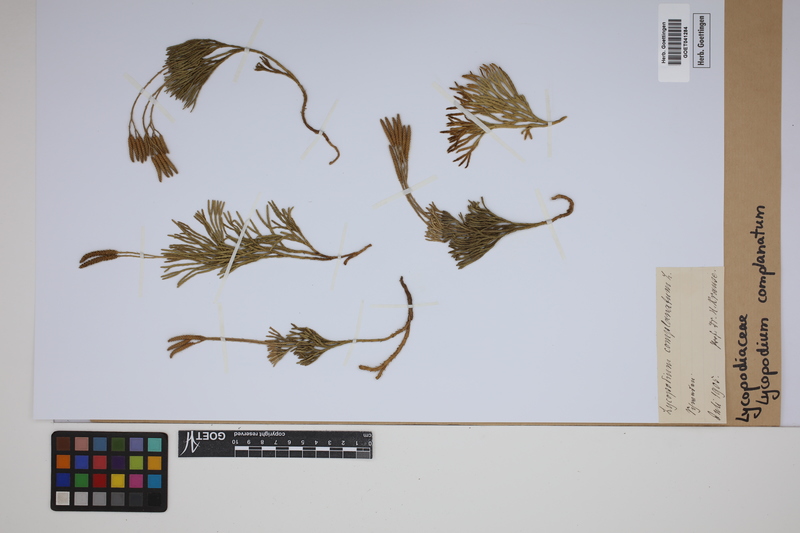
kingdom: Plantae
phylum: Tracheophyta
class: Lycopodiopsida
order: Lycopodiales
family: Lycopodiaceae
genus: Diphasiastrum
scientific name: Diphasiastrum complanatum
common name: Northern running-pine
